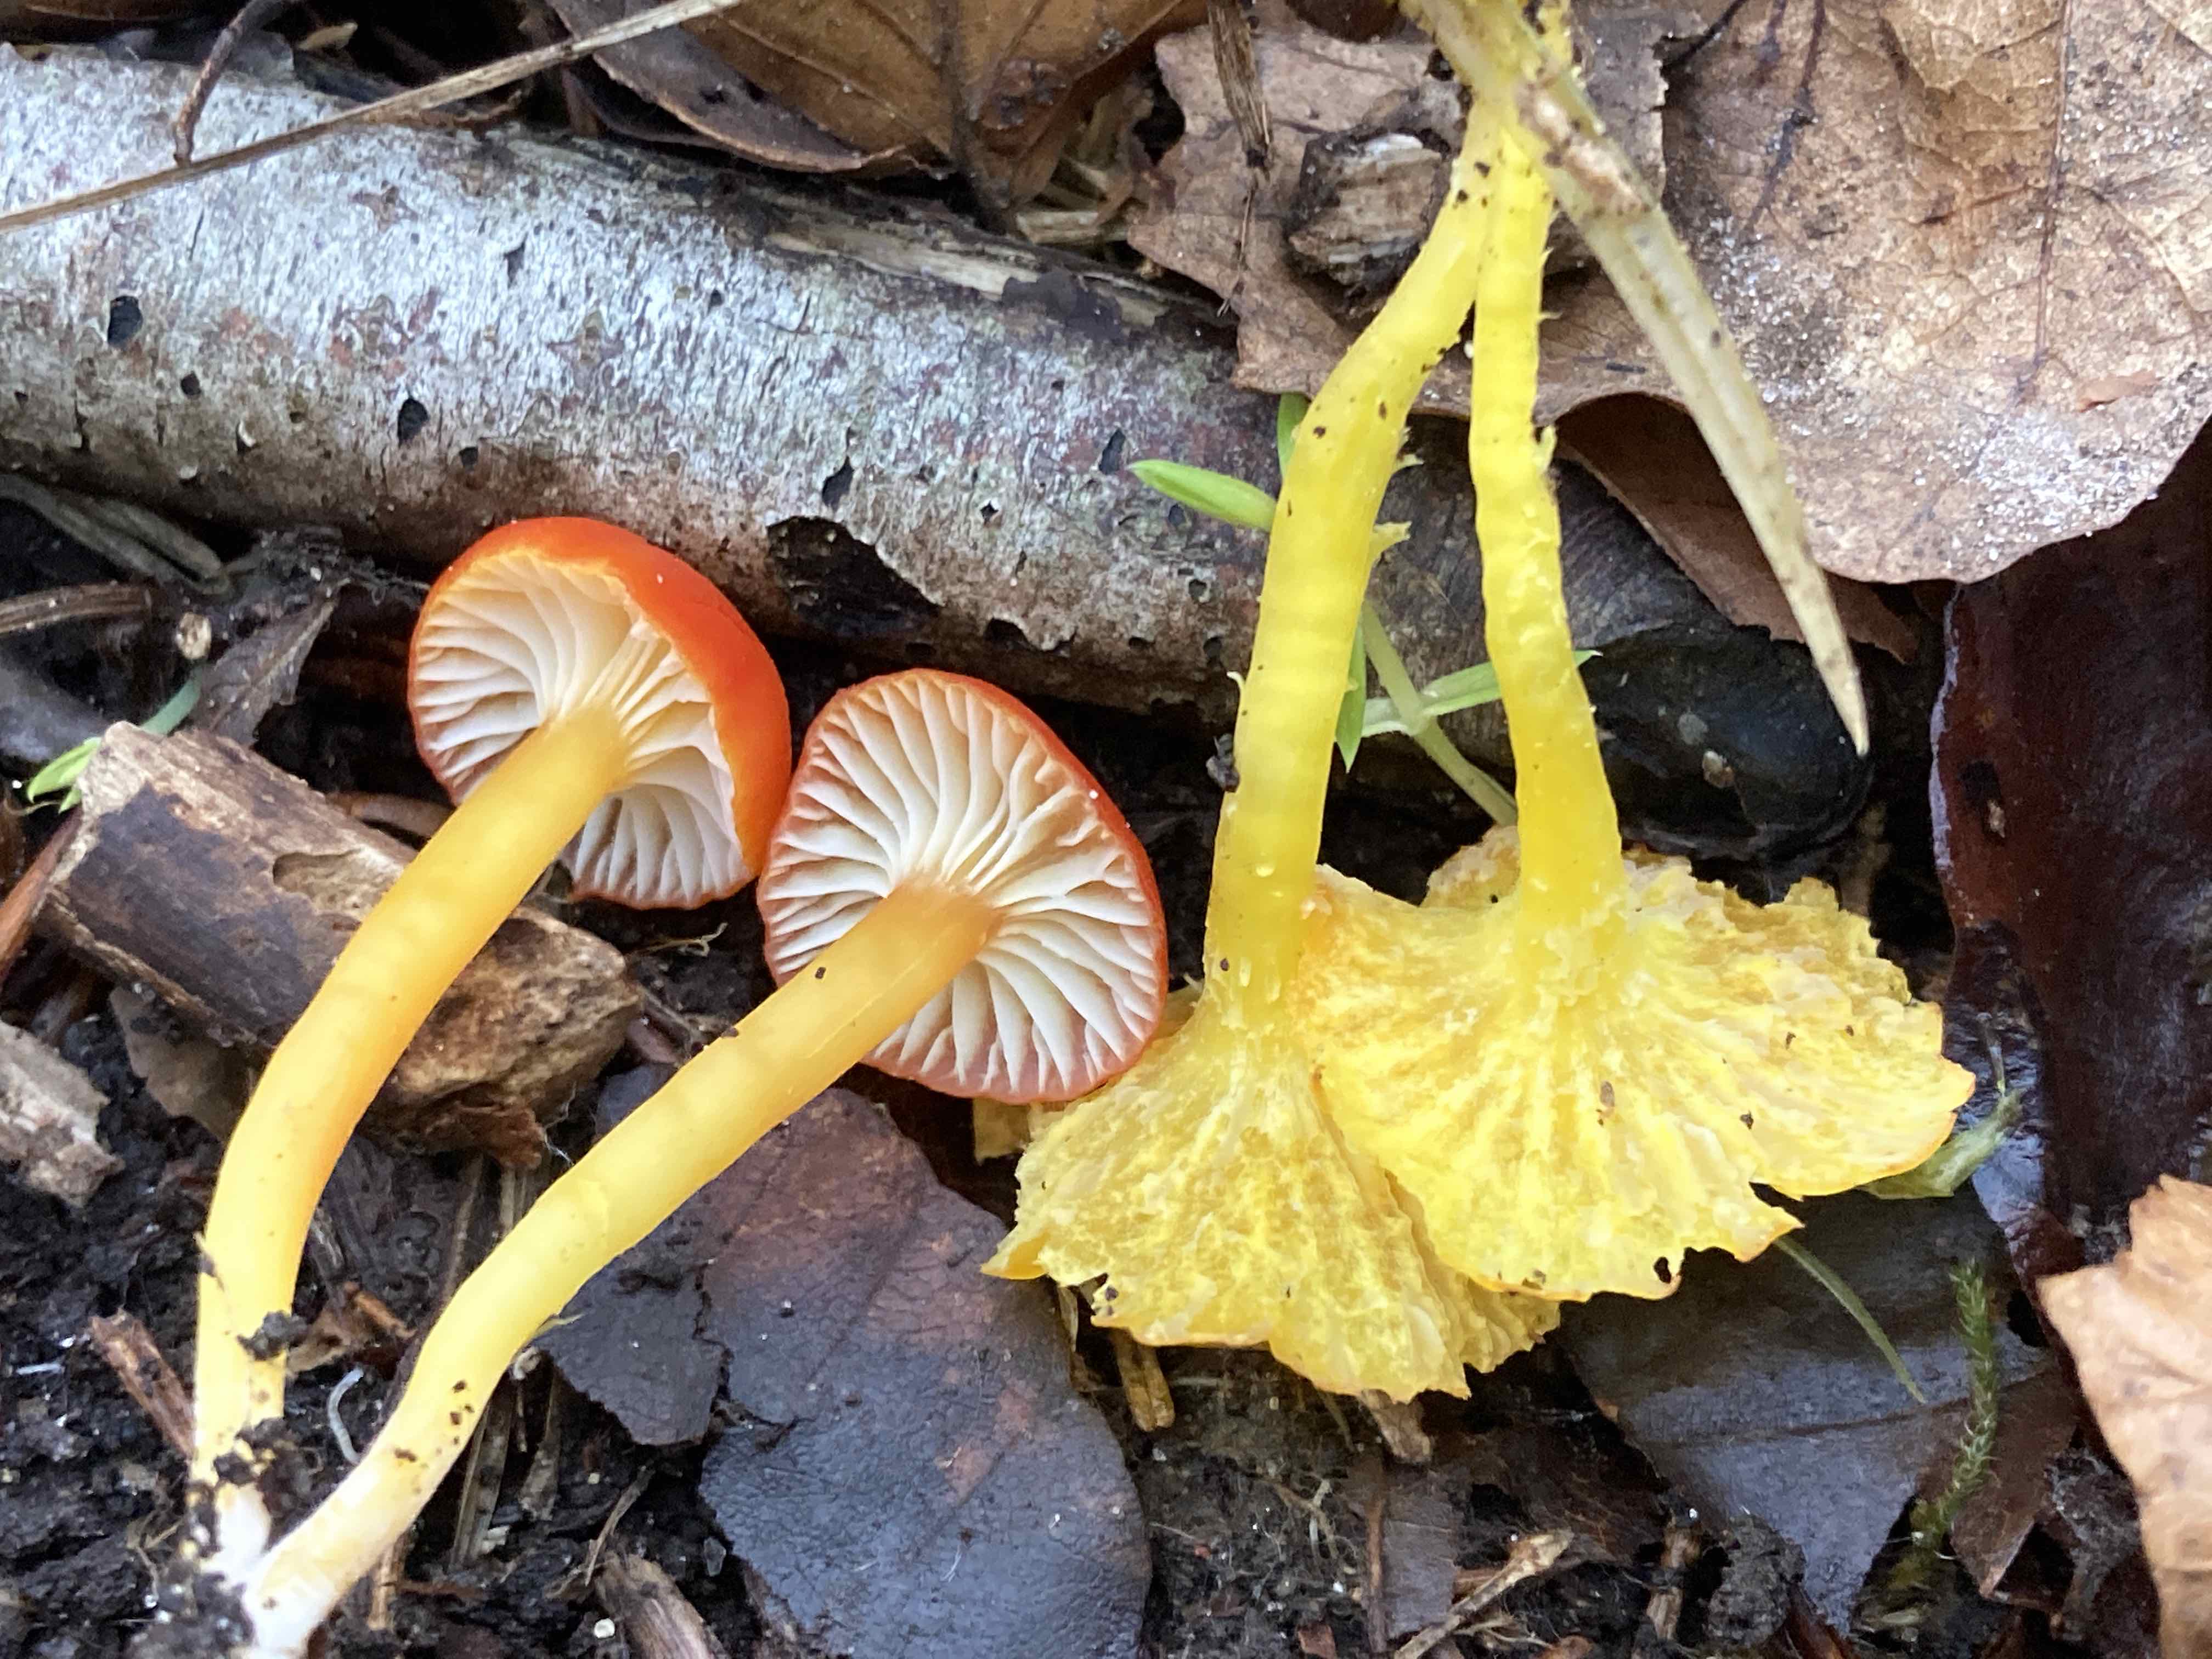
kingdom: Fungi
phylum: Basidiomycota
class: Agaricomycetes
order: Agaricales
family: Hygrophoraceae
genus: Hygrocybe
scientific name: Hygrocybe
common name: vokshat
